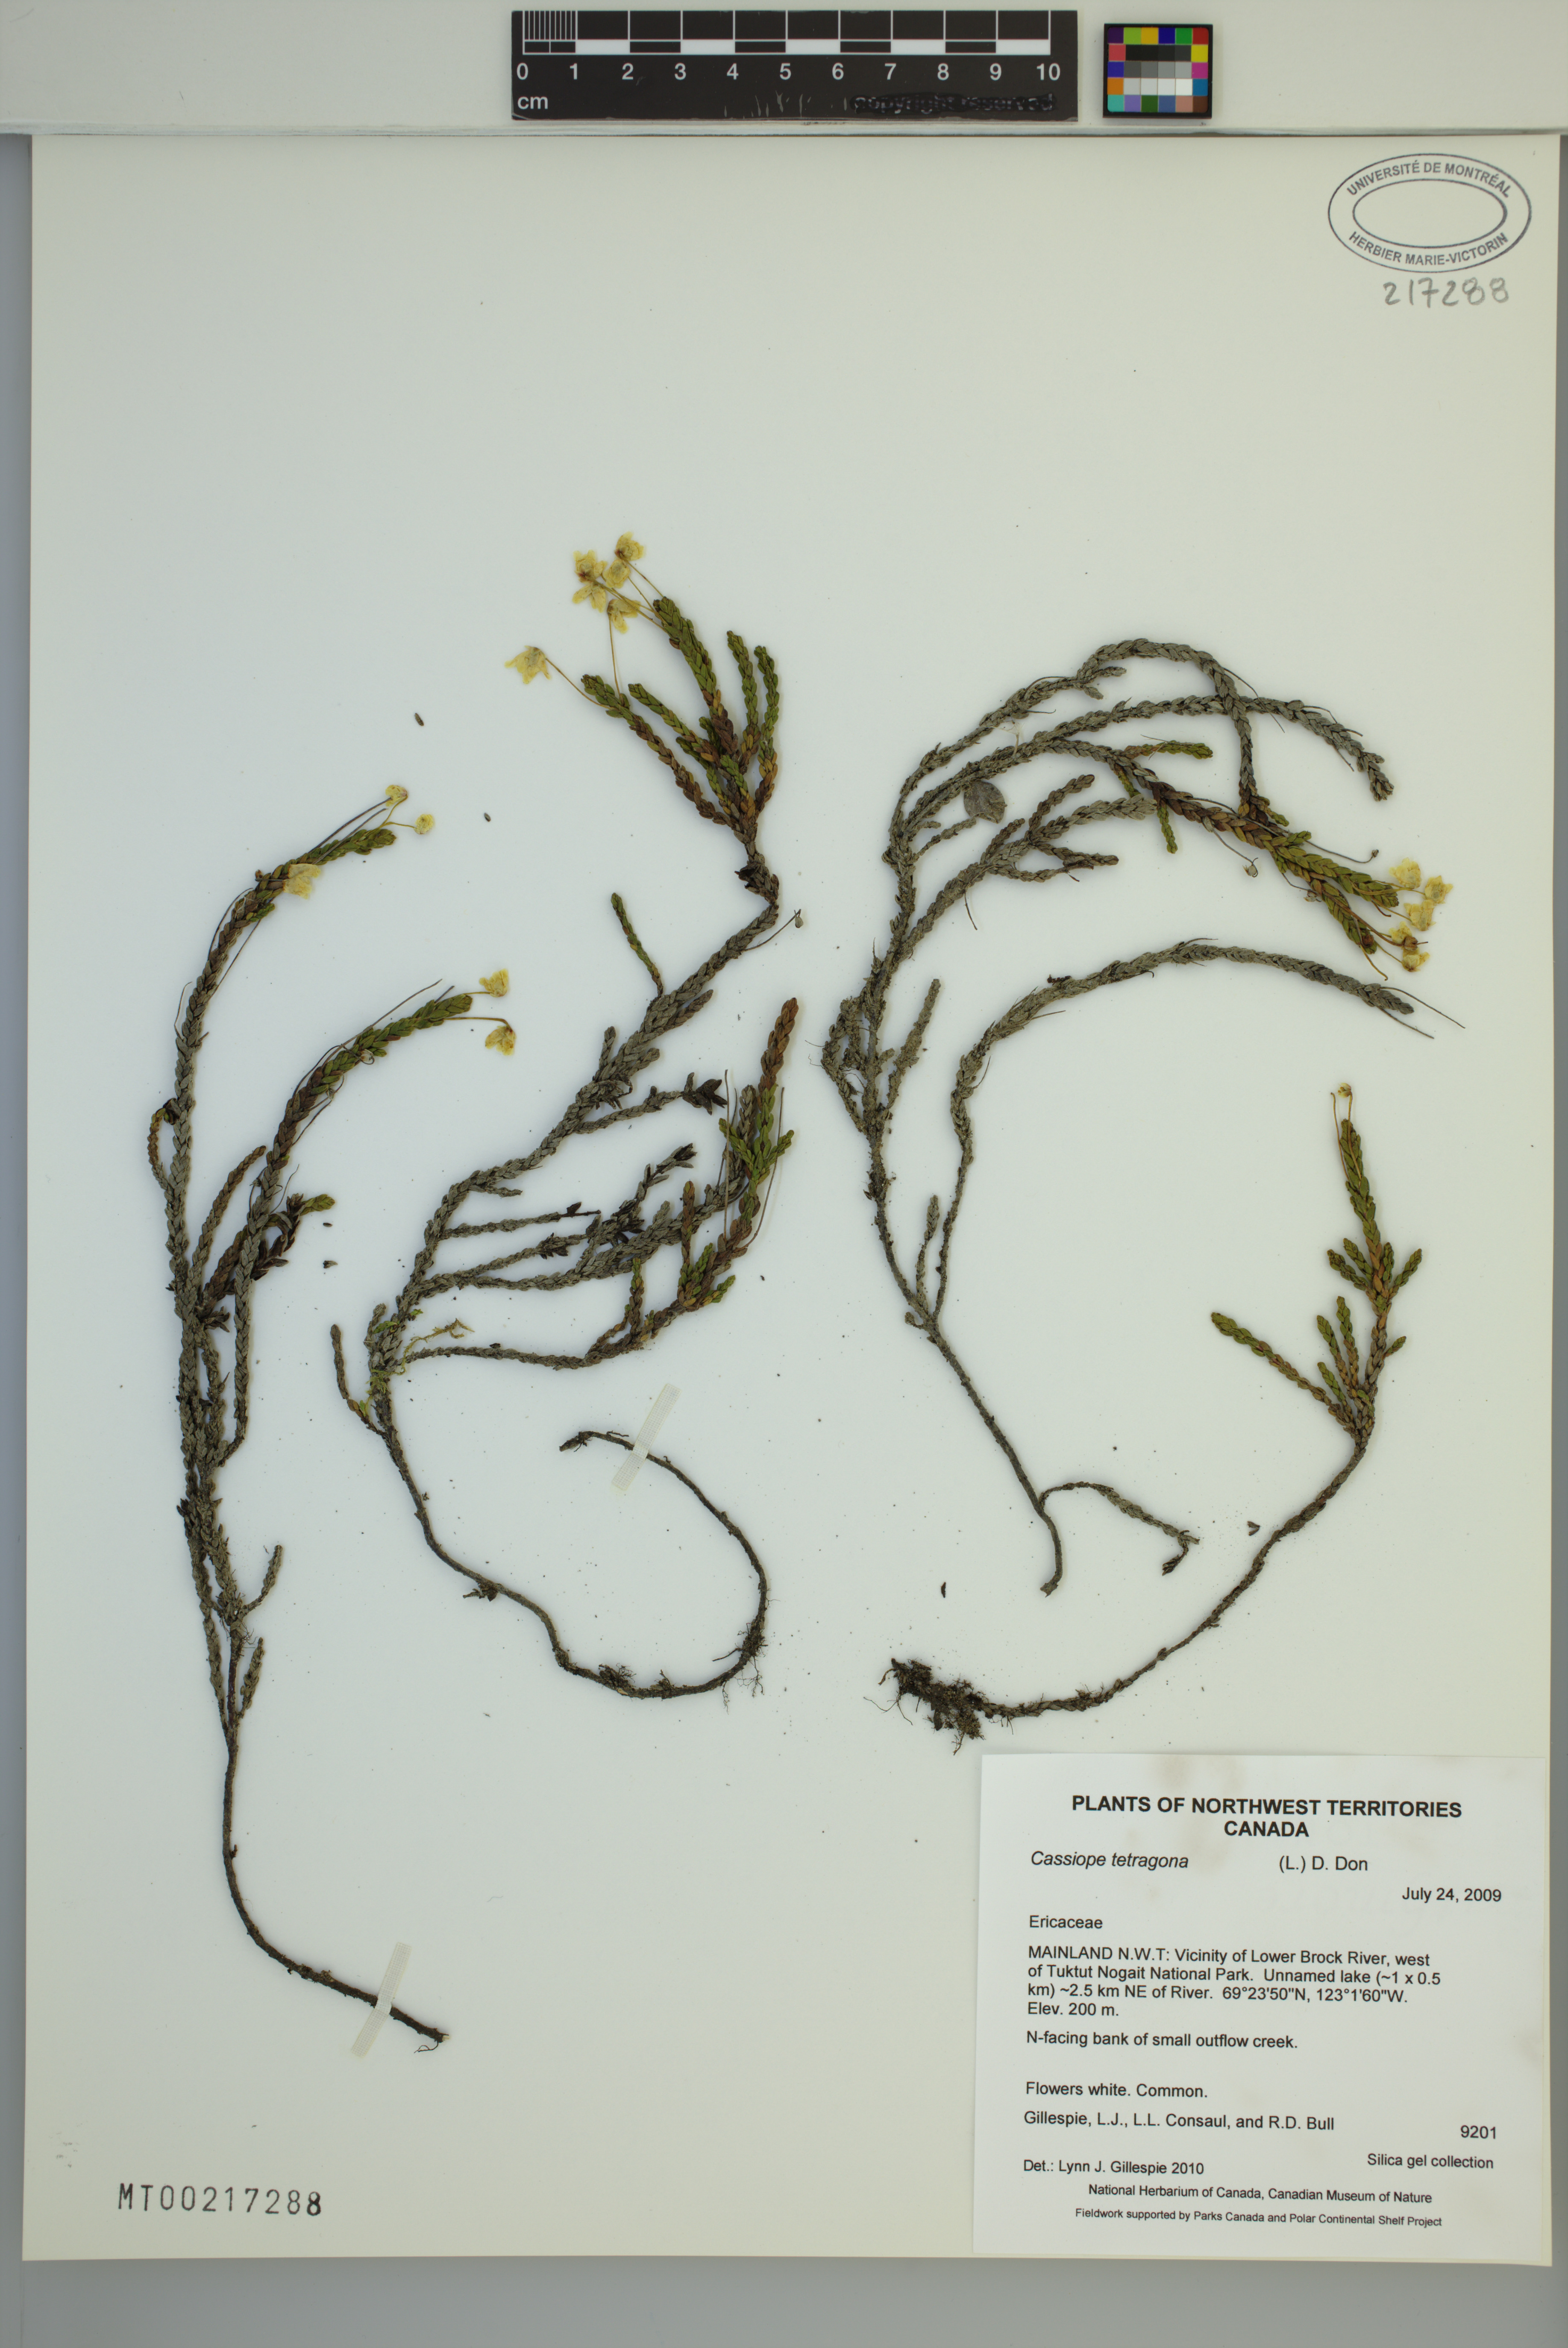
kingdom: Plantae
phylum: Tracheophyta
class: Magnoliopsida
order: Ericales
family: Ericaceae
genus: Cassiope
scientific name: Cassiope tetragona
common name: Arctic bell heather
